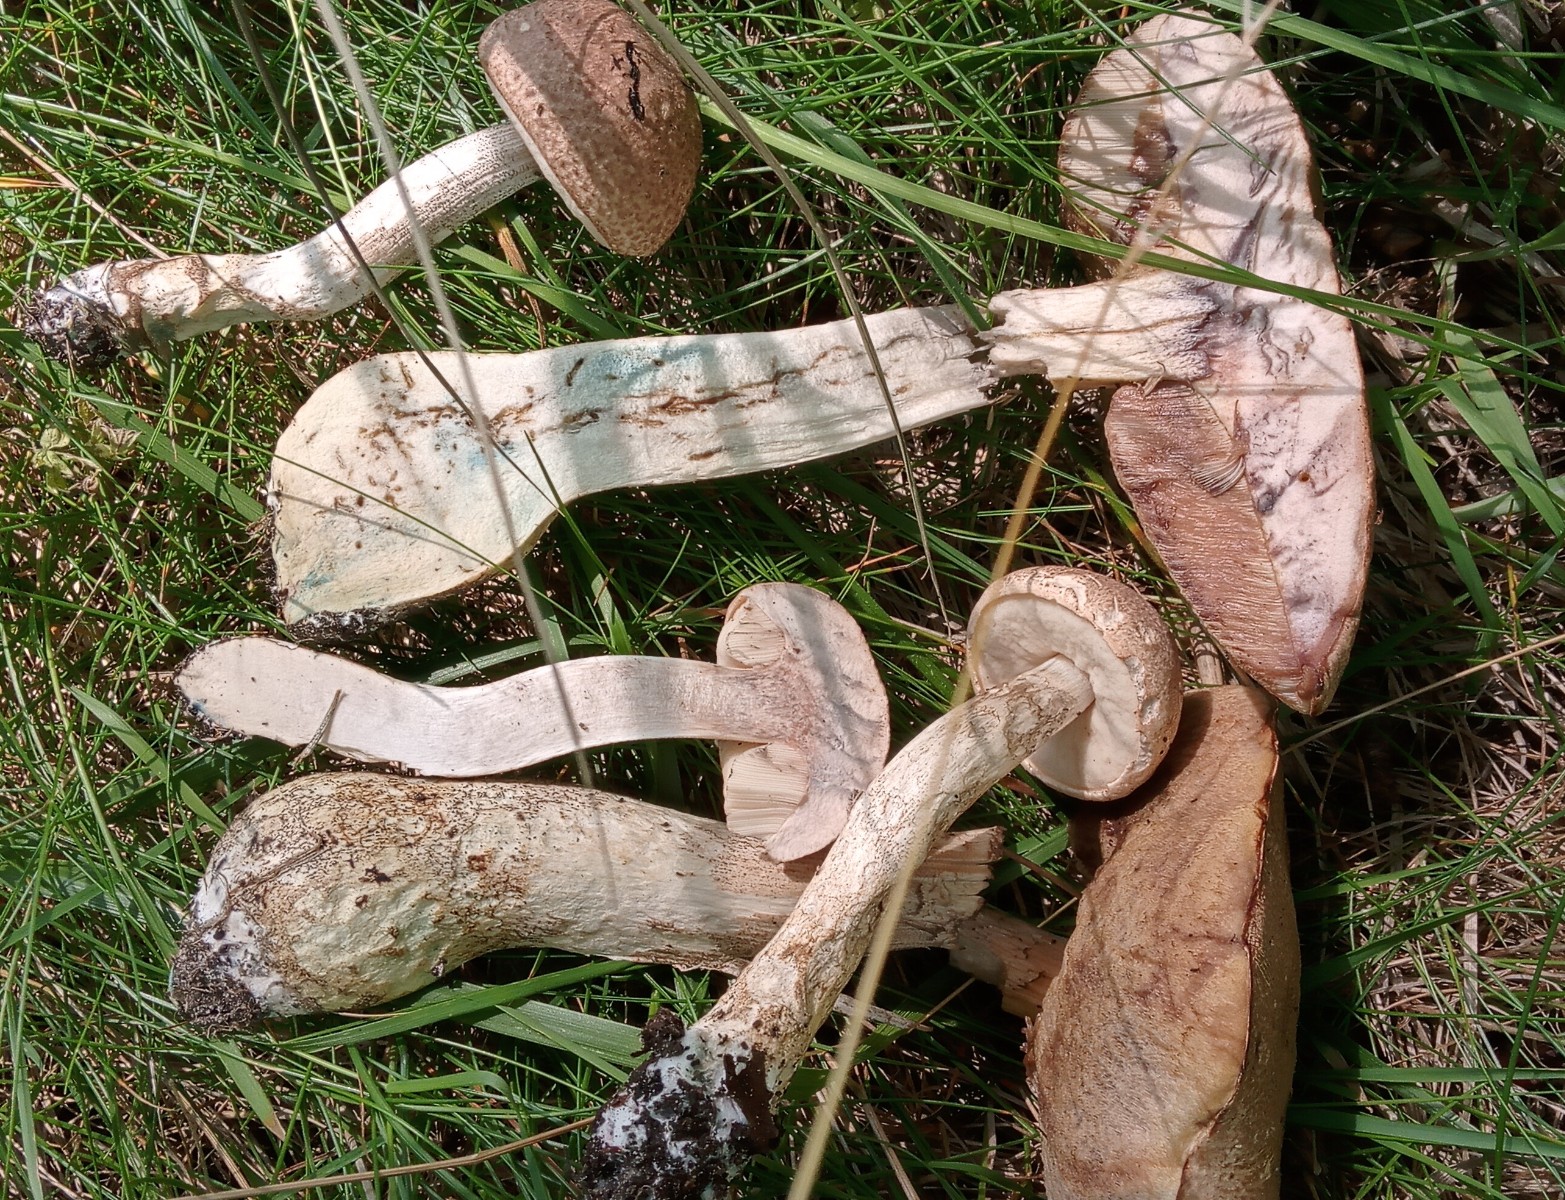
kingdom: Fungi
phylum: Basidiomycota
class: Agaricomycetes
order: Boletales
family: Boletaceae
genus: Leccinum
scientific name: Leccinum duriusculum
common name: poppel-skælrørhat
